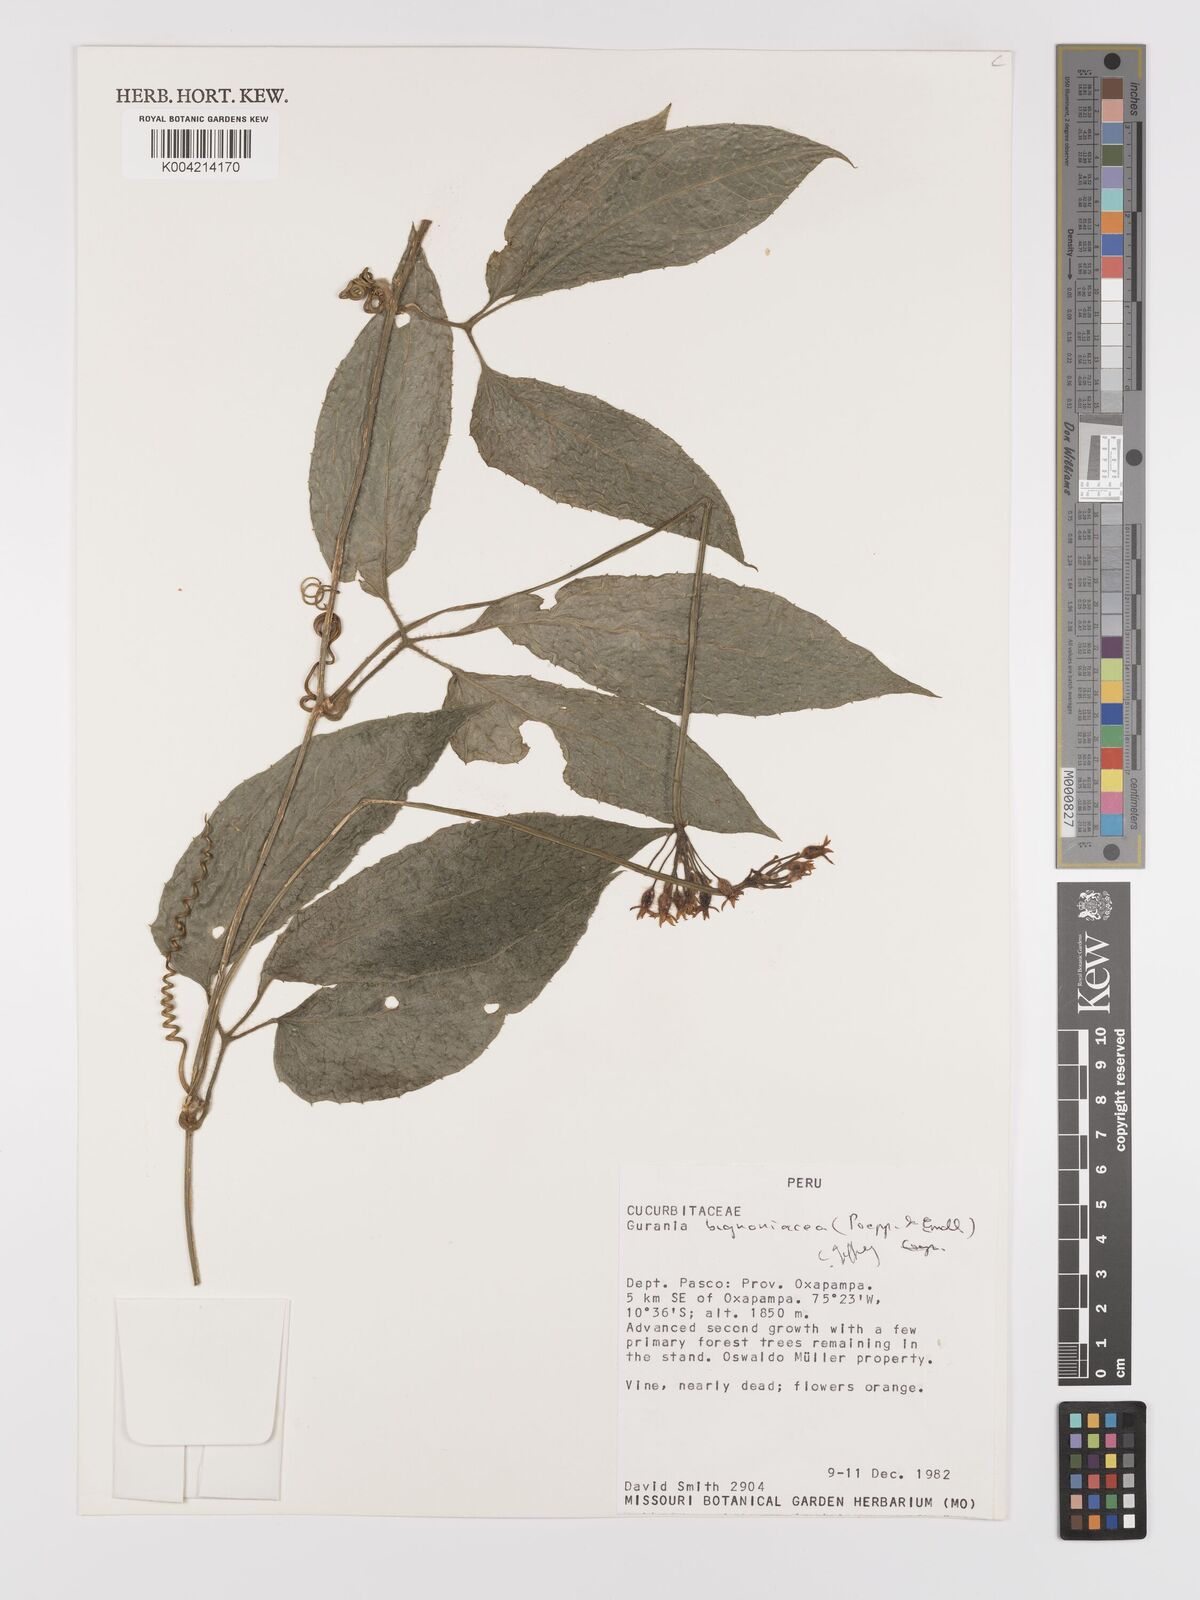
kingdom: Plantae
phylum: Tracheophyta
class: Magnoliopsida
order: Cucurbitales
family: Cucurbitaceae
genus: Gurania
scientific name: Gurania bignoniacea
